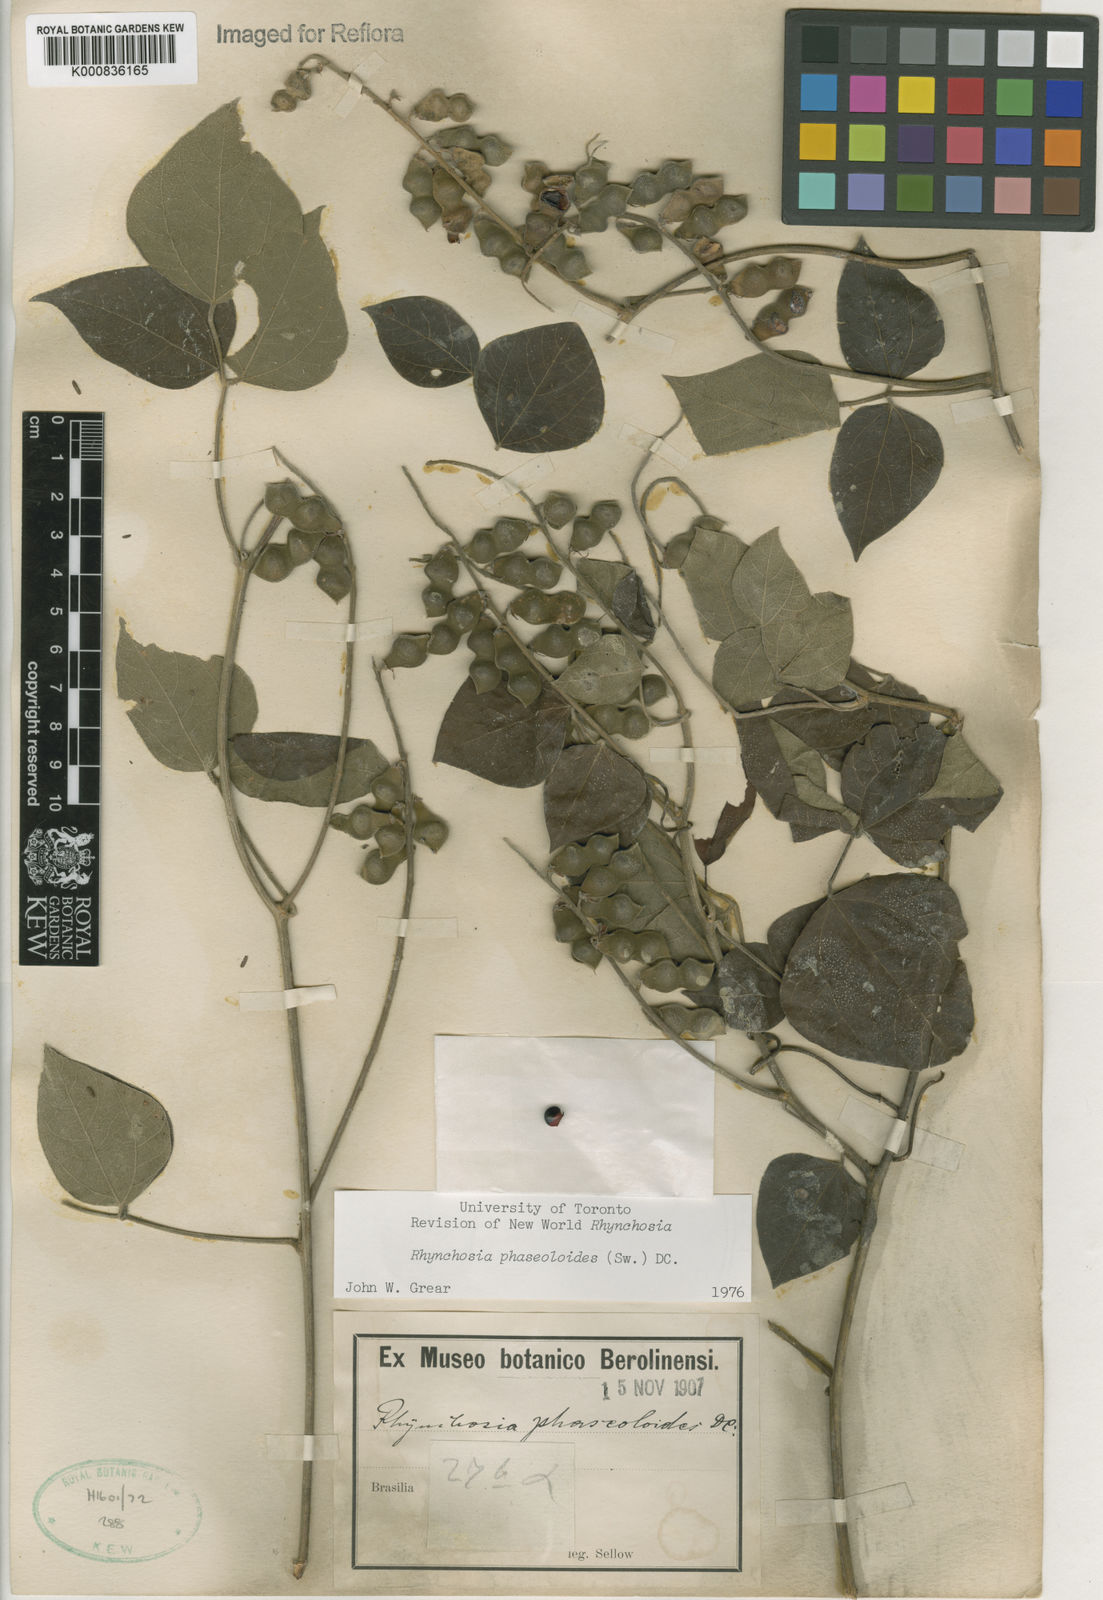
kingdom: Plantae
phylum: Tracheophyta
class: Magnoliopsida
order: Fabales
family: Fabaceae
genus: Rhynchosia
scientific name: Rhynchosia phaseoloides
